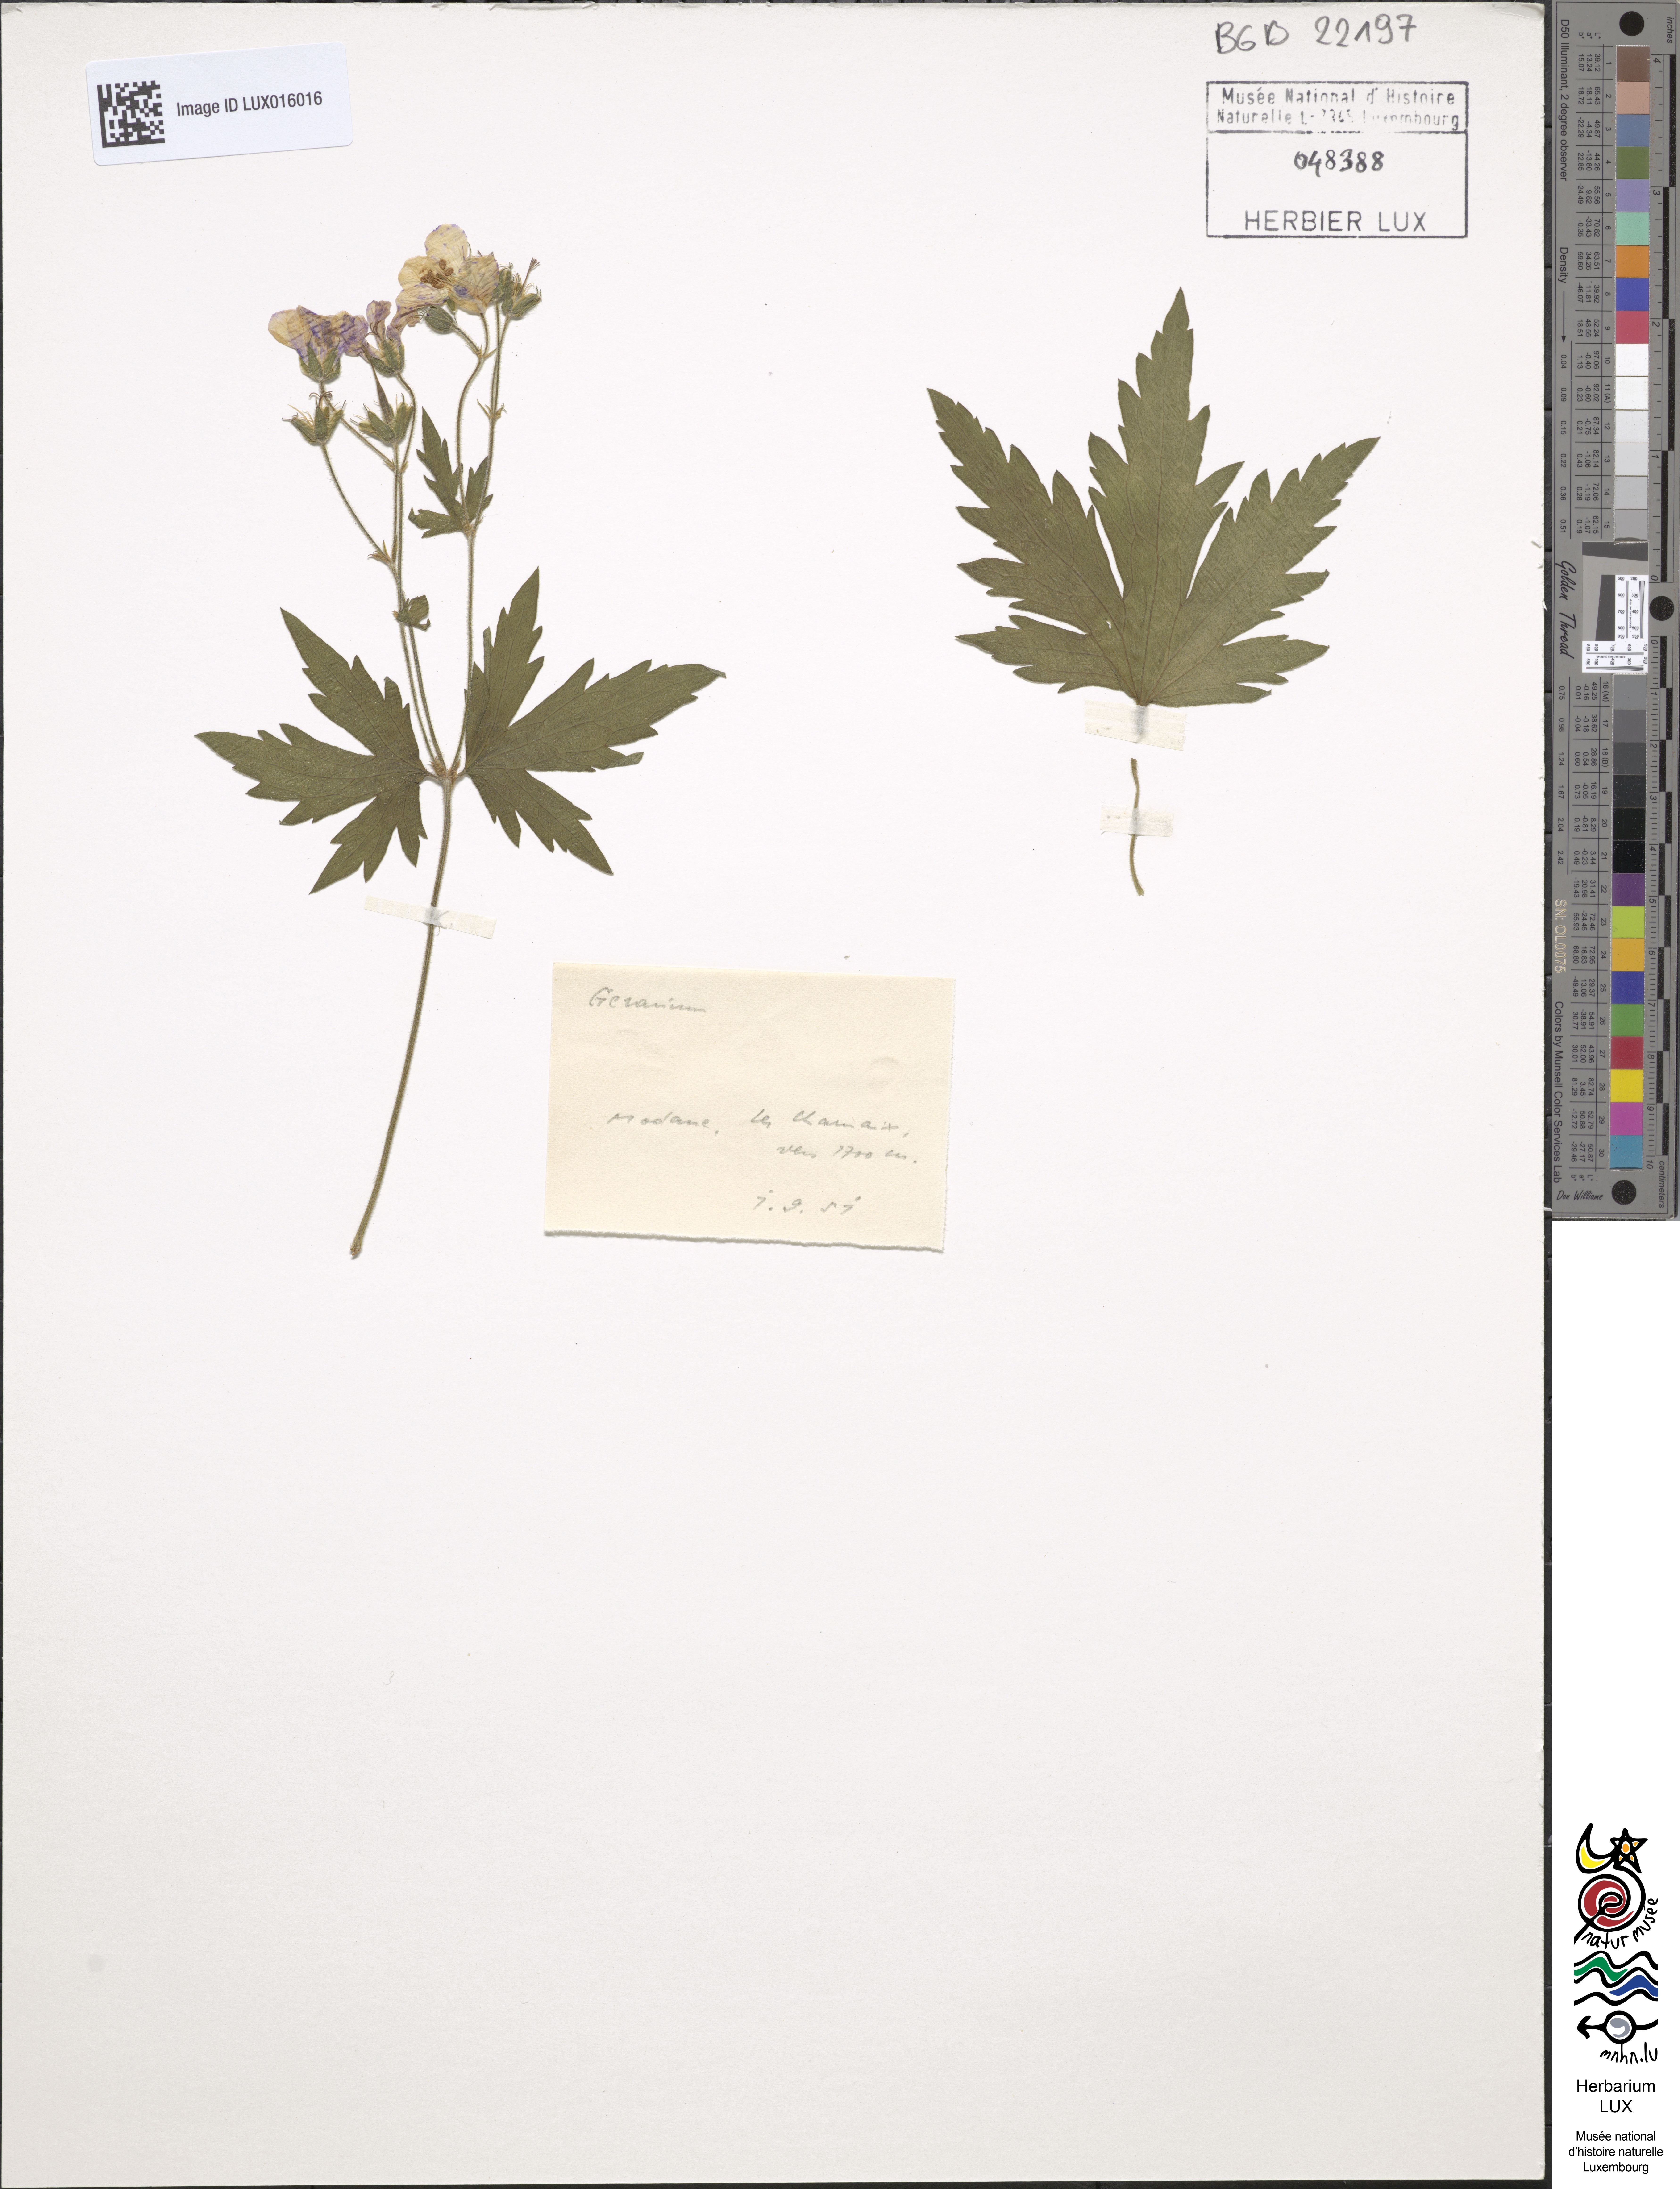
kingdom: Plantae
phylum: Tracheophyta
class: Magnoliopsida
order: Geraniales
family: Geraniaceae
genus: Geranium
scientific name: Geranium
